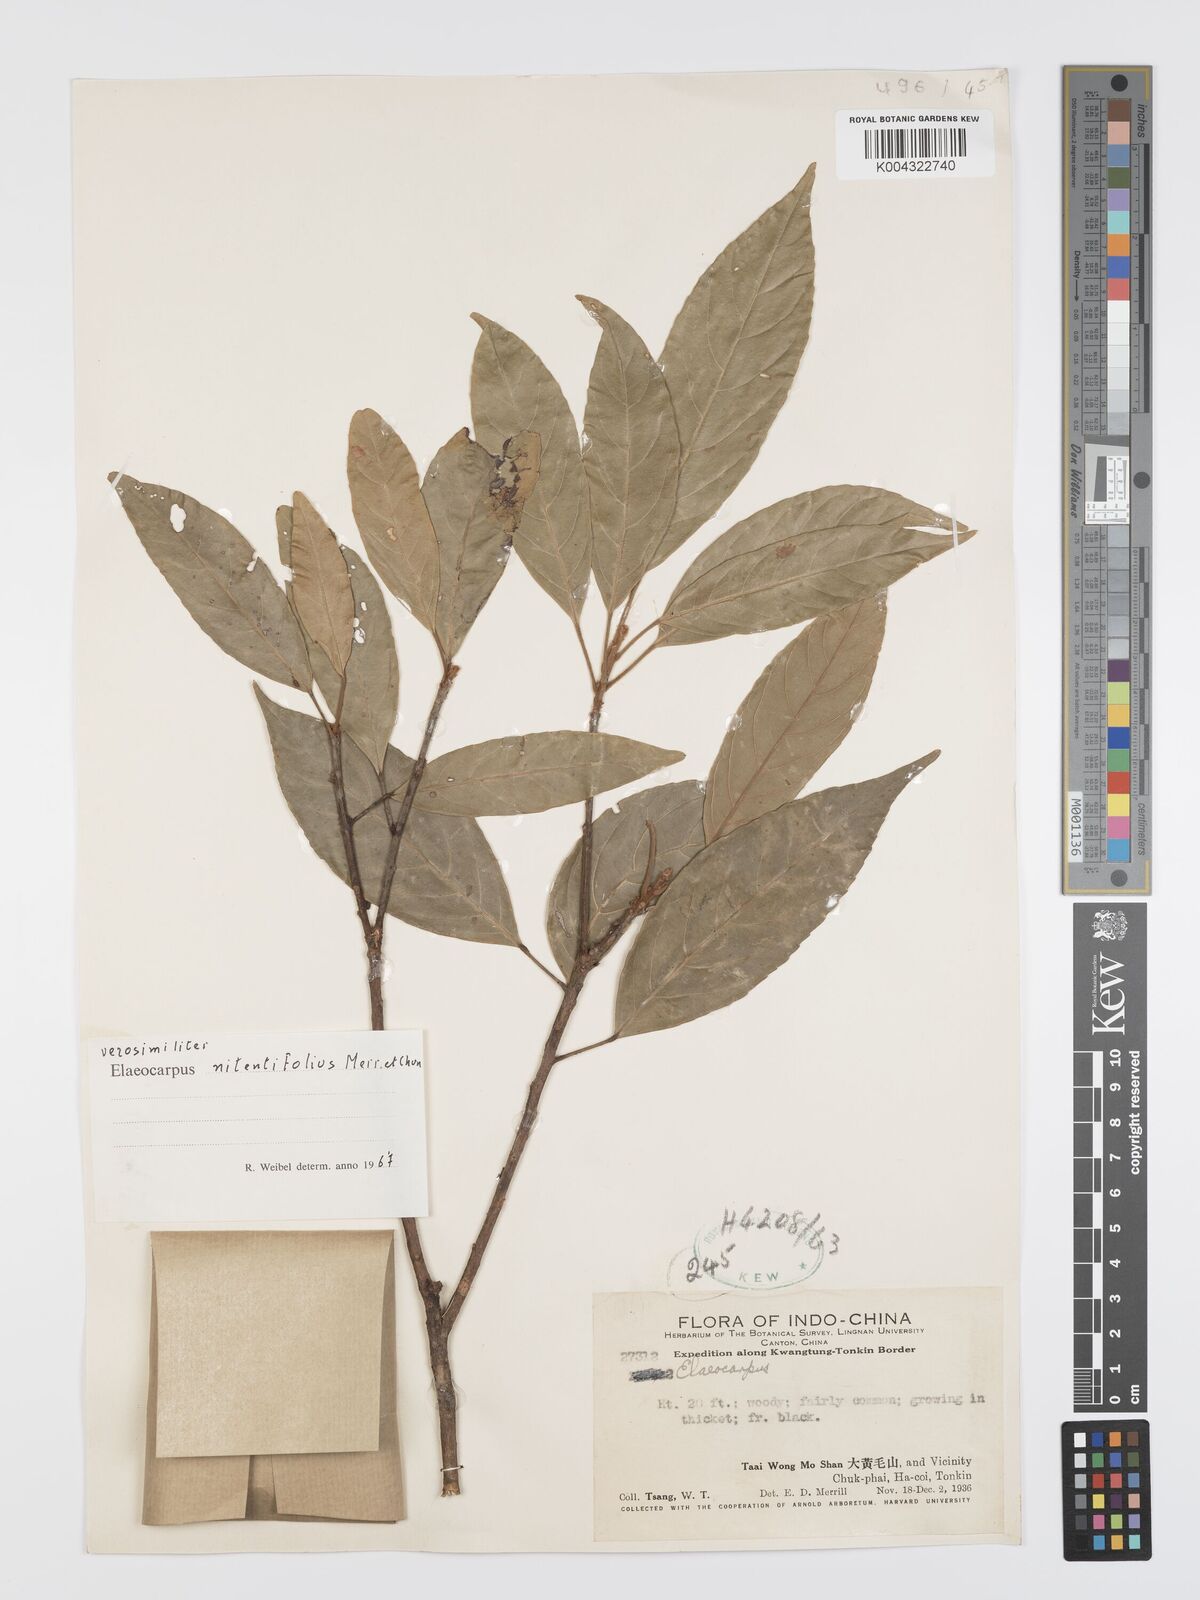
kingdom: Plantae
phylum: Tracheophyta
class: Magnoliopsida
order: Oxalidales
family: Elaeocarpaceae
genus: Elaeocarpus
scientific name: Elaeocarpus nitentifolius
